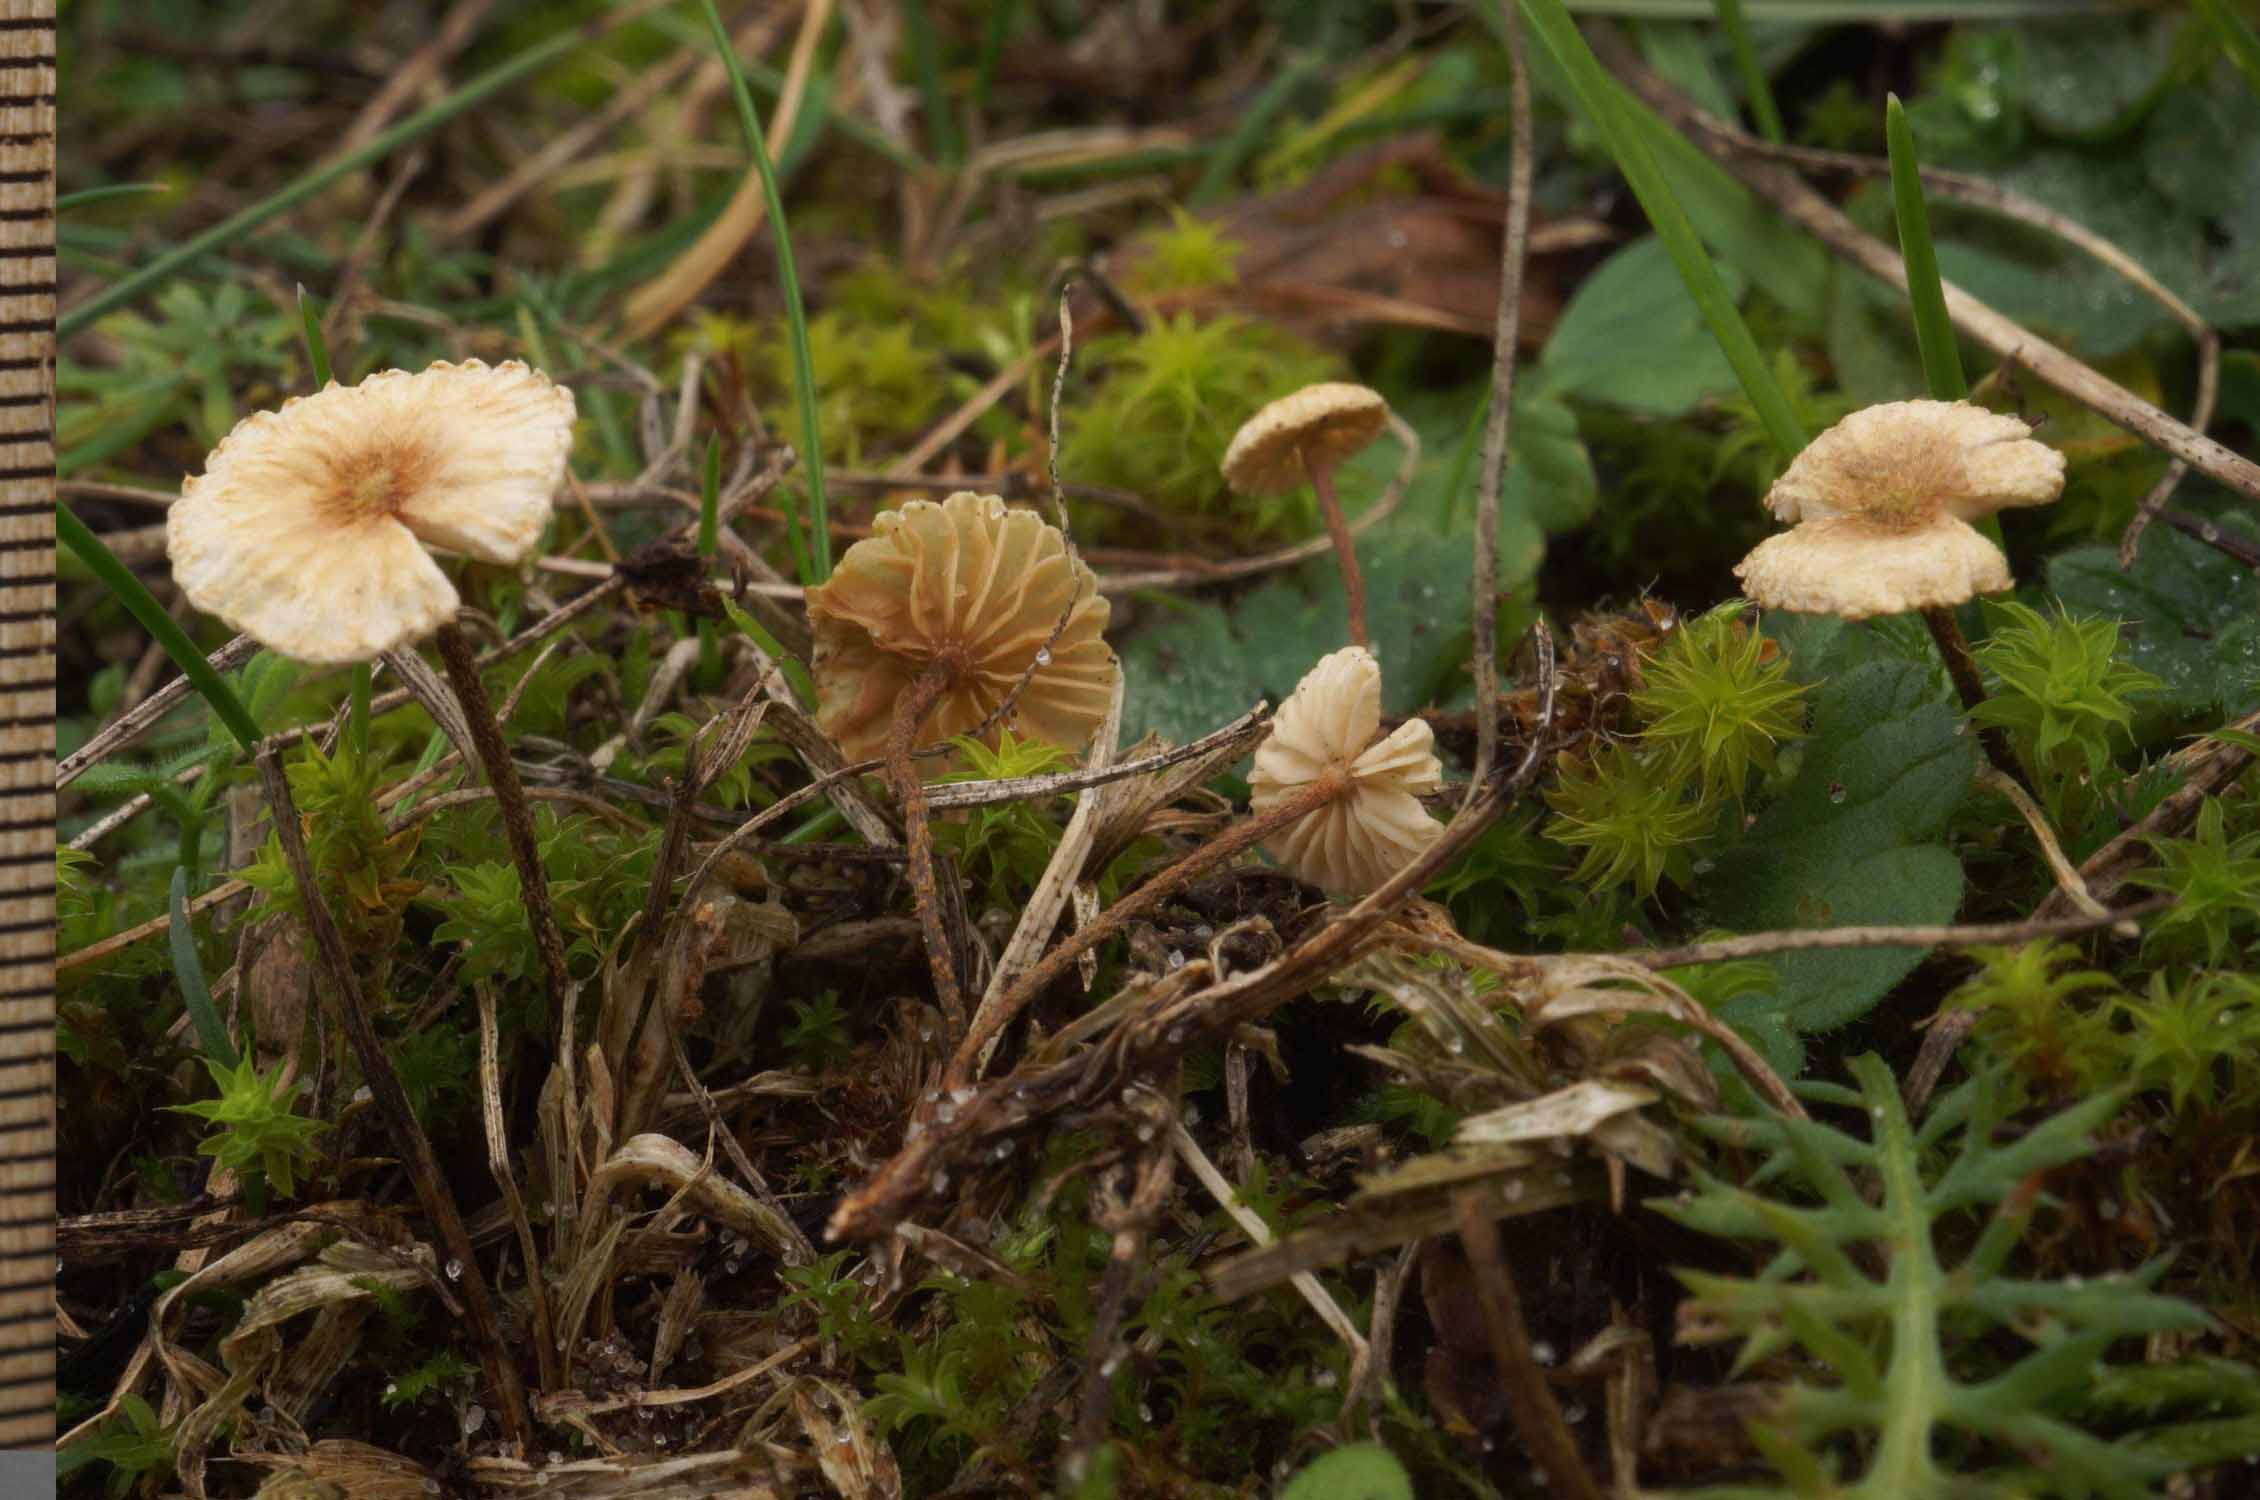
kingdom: Fungi
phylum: Basidiomycota
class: Agaricomycetes
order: Agaricales
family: Marasmiaceae
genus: Crinipellis
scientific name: Crinipellis scabella
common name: børstefod
